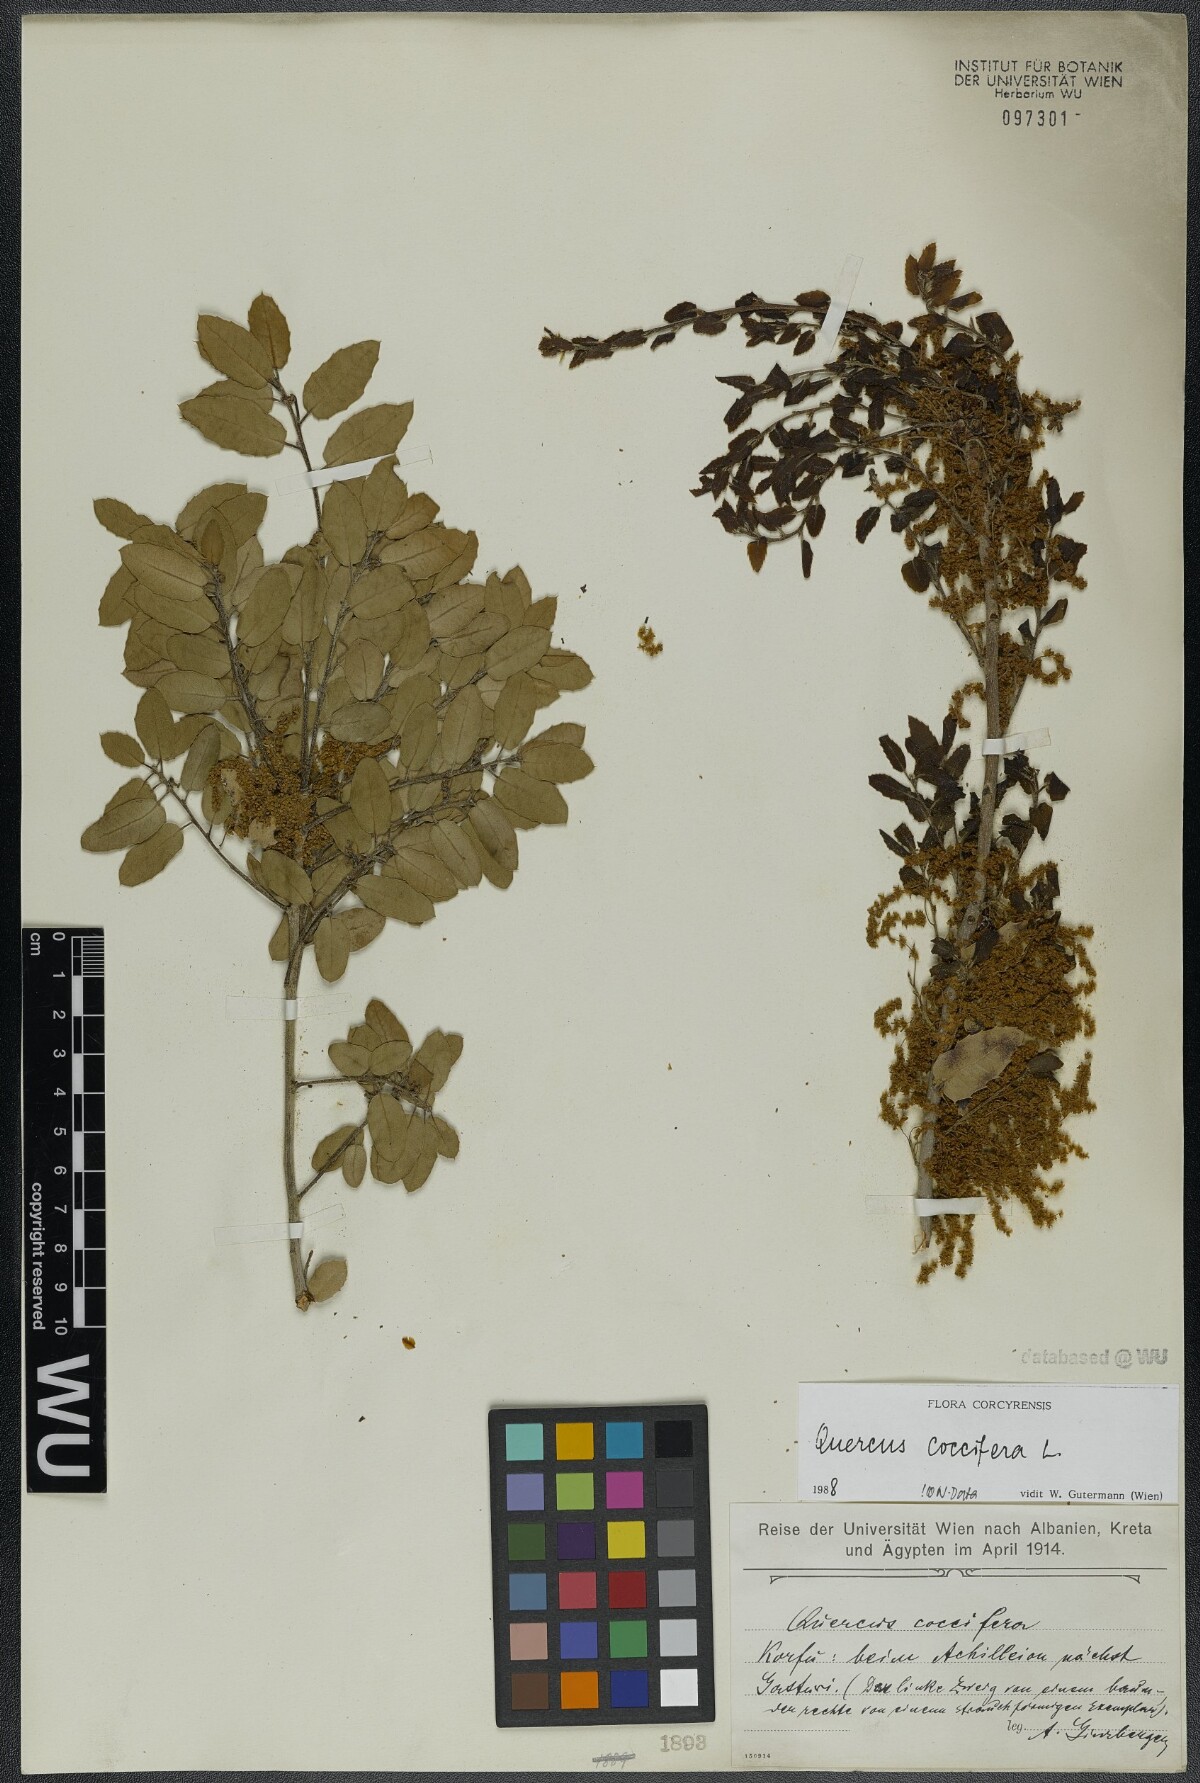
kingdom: Plantae
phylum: Tracheophyta
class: Magnoliopsida
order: Fagales
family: Fagaceae
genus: Quercus
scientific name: Quercus coccifera
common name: Kermes oak
